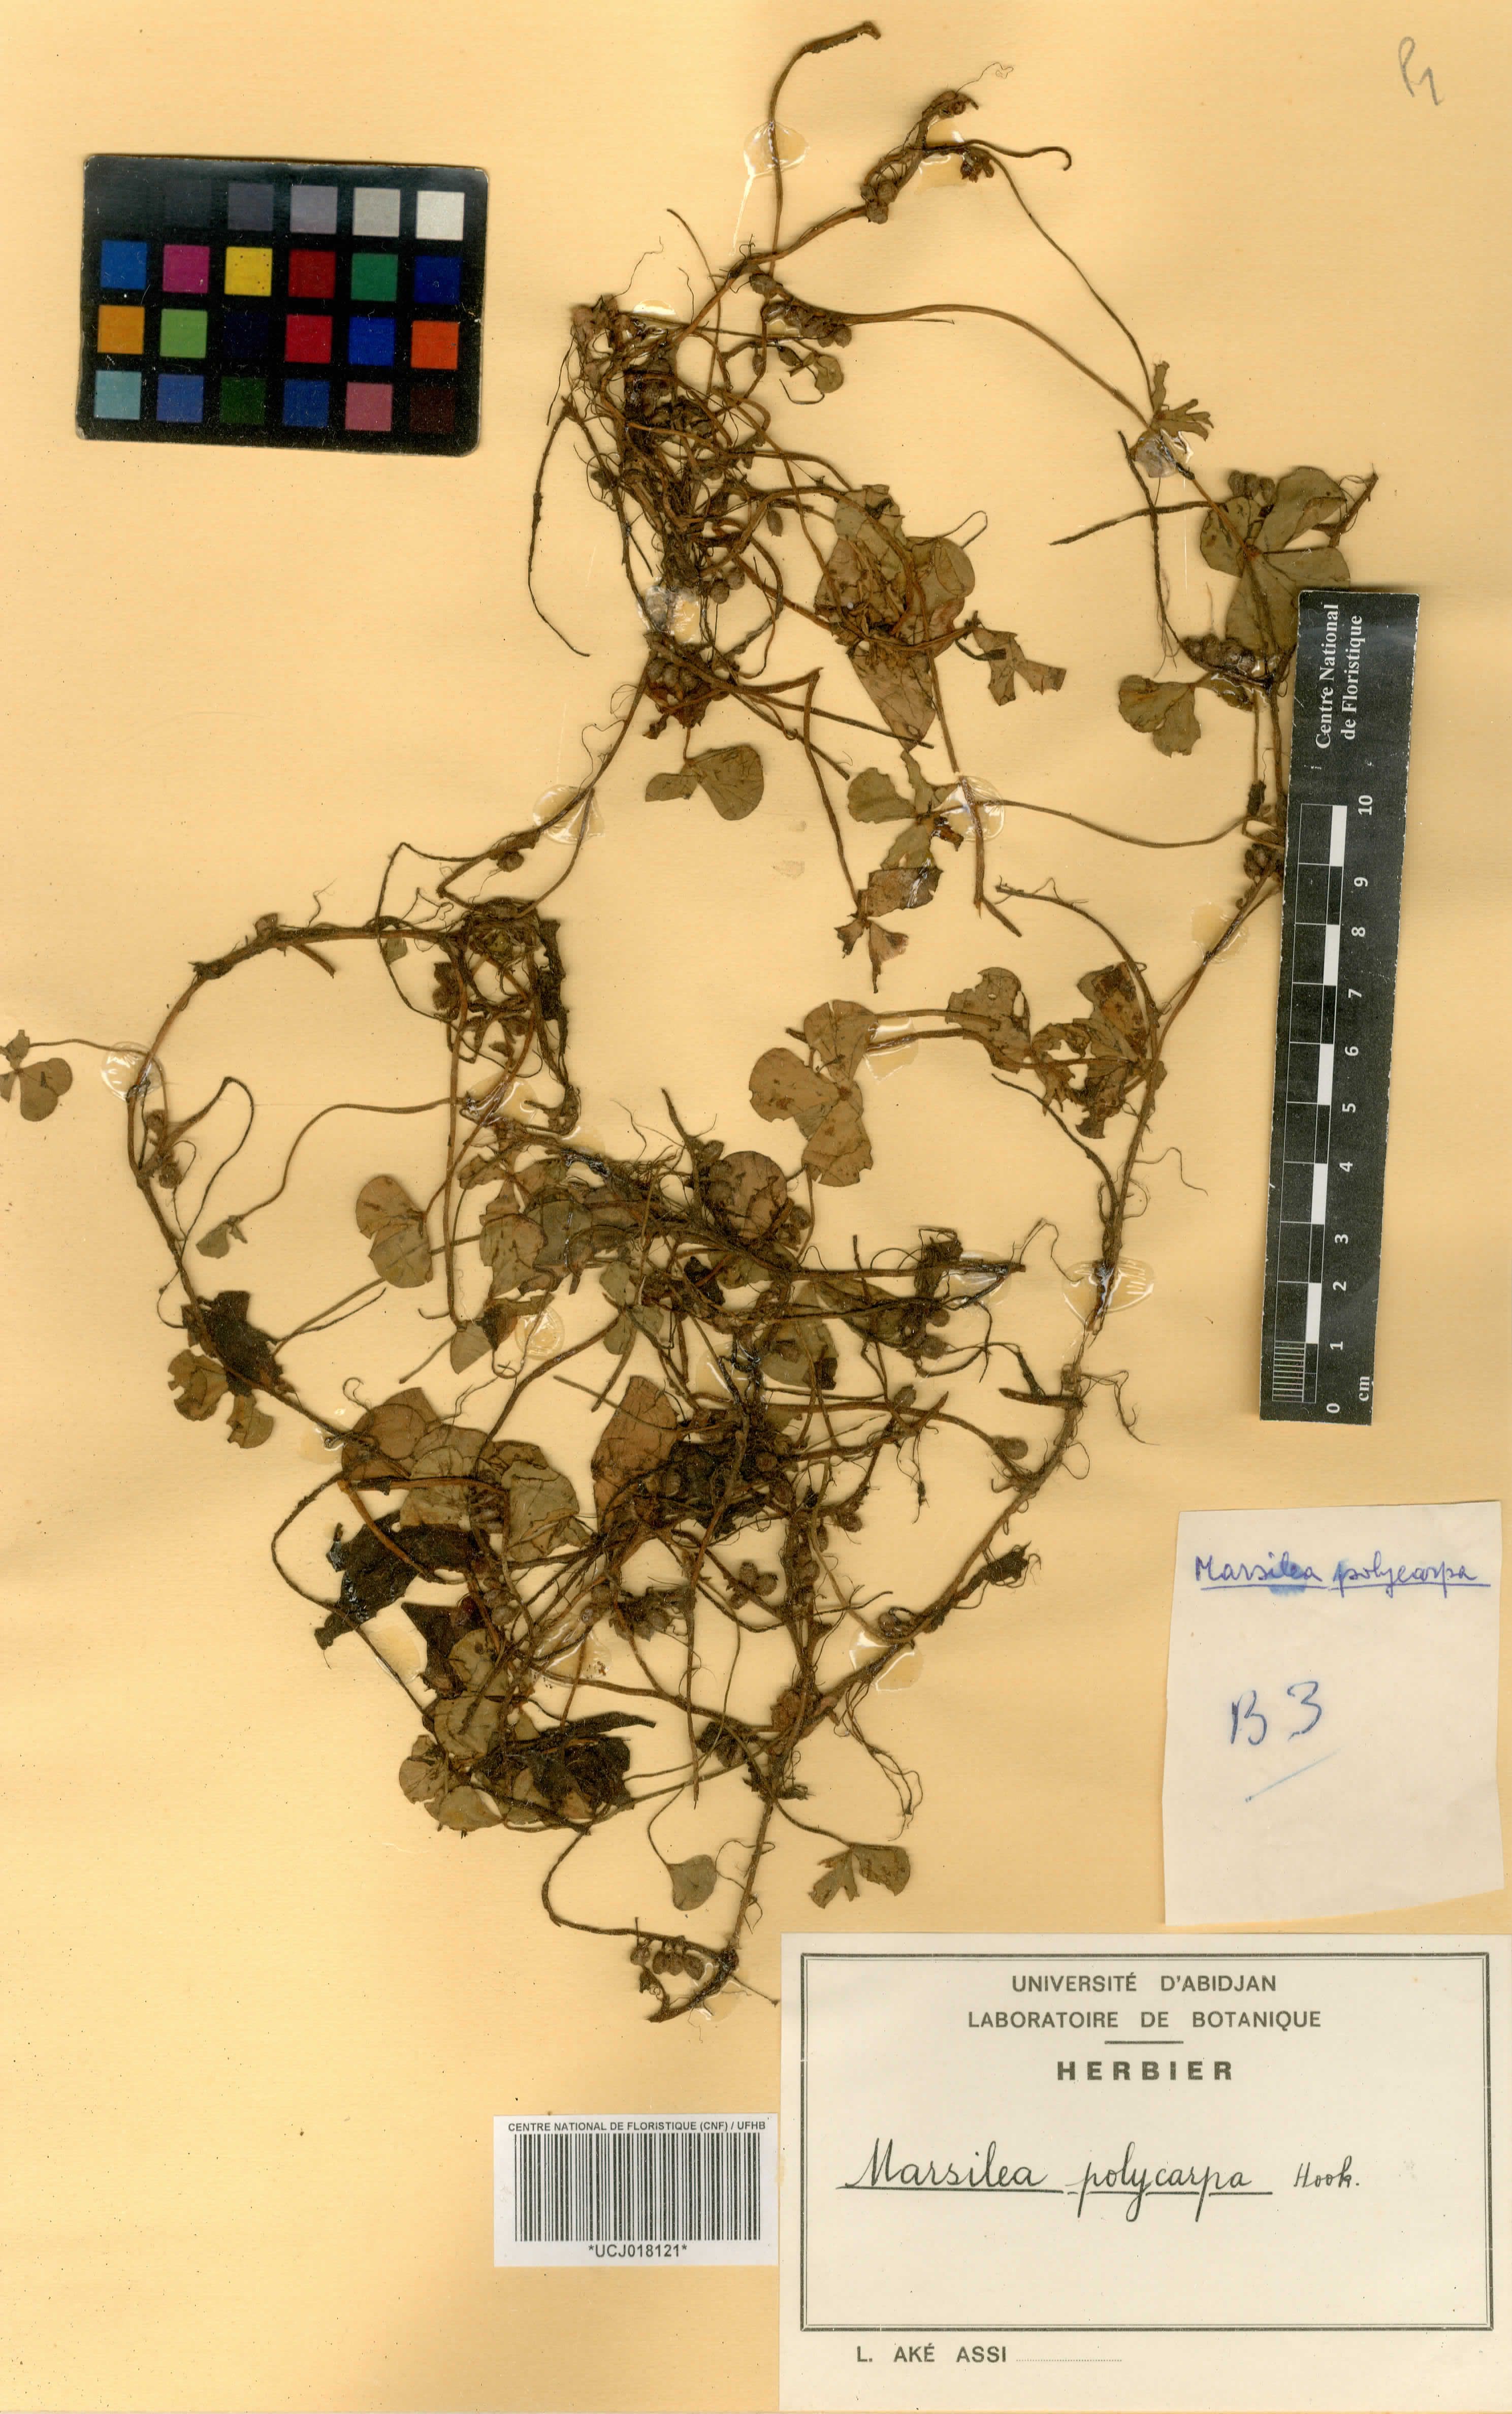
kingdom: Plantae
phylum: Tracheophyta
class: Polypodiopsida
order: Salviniales
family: Marsileaceae
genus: Marsilea
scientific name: Marsilea polycarpa
